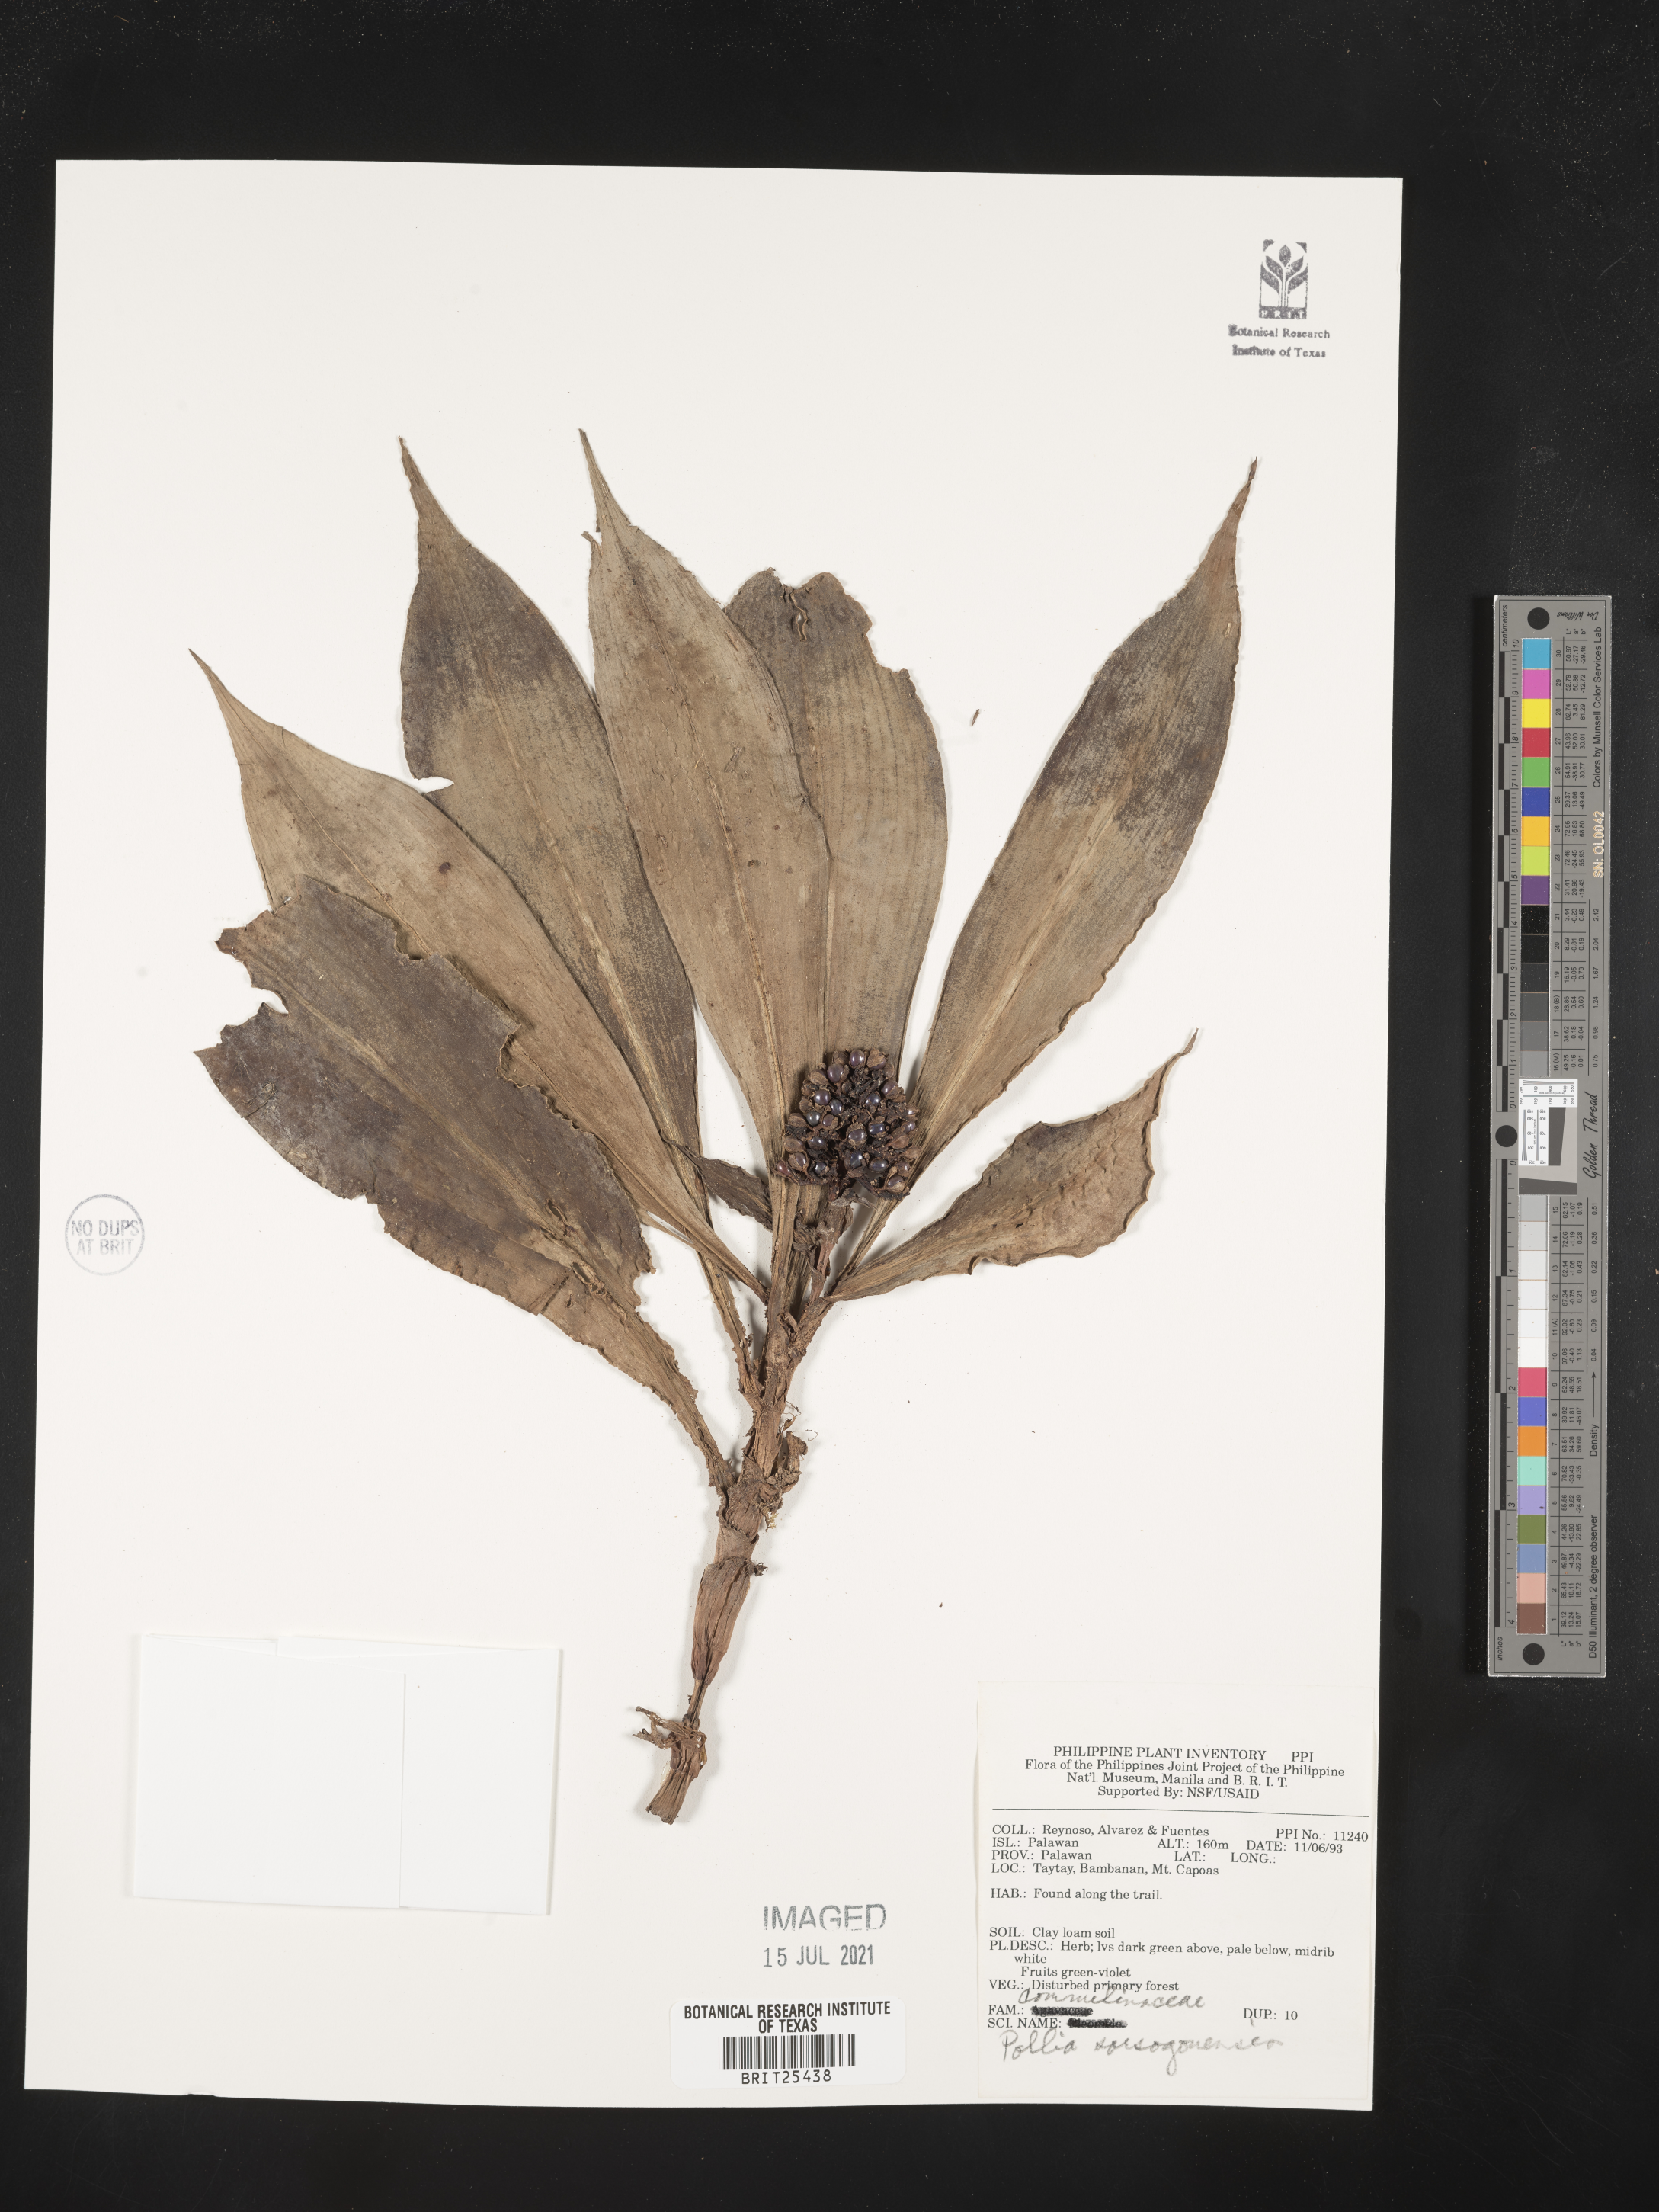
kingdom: Plantae
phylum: Tracheophyta
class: Liliopsida
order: Commelinales
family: Commelinaceae
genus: Pollia
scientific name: Pollia secundiflora
